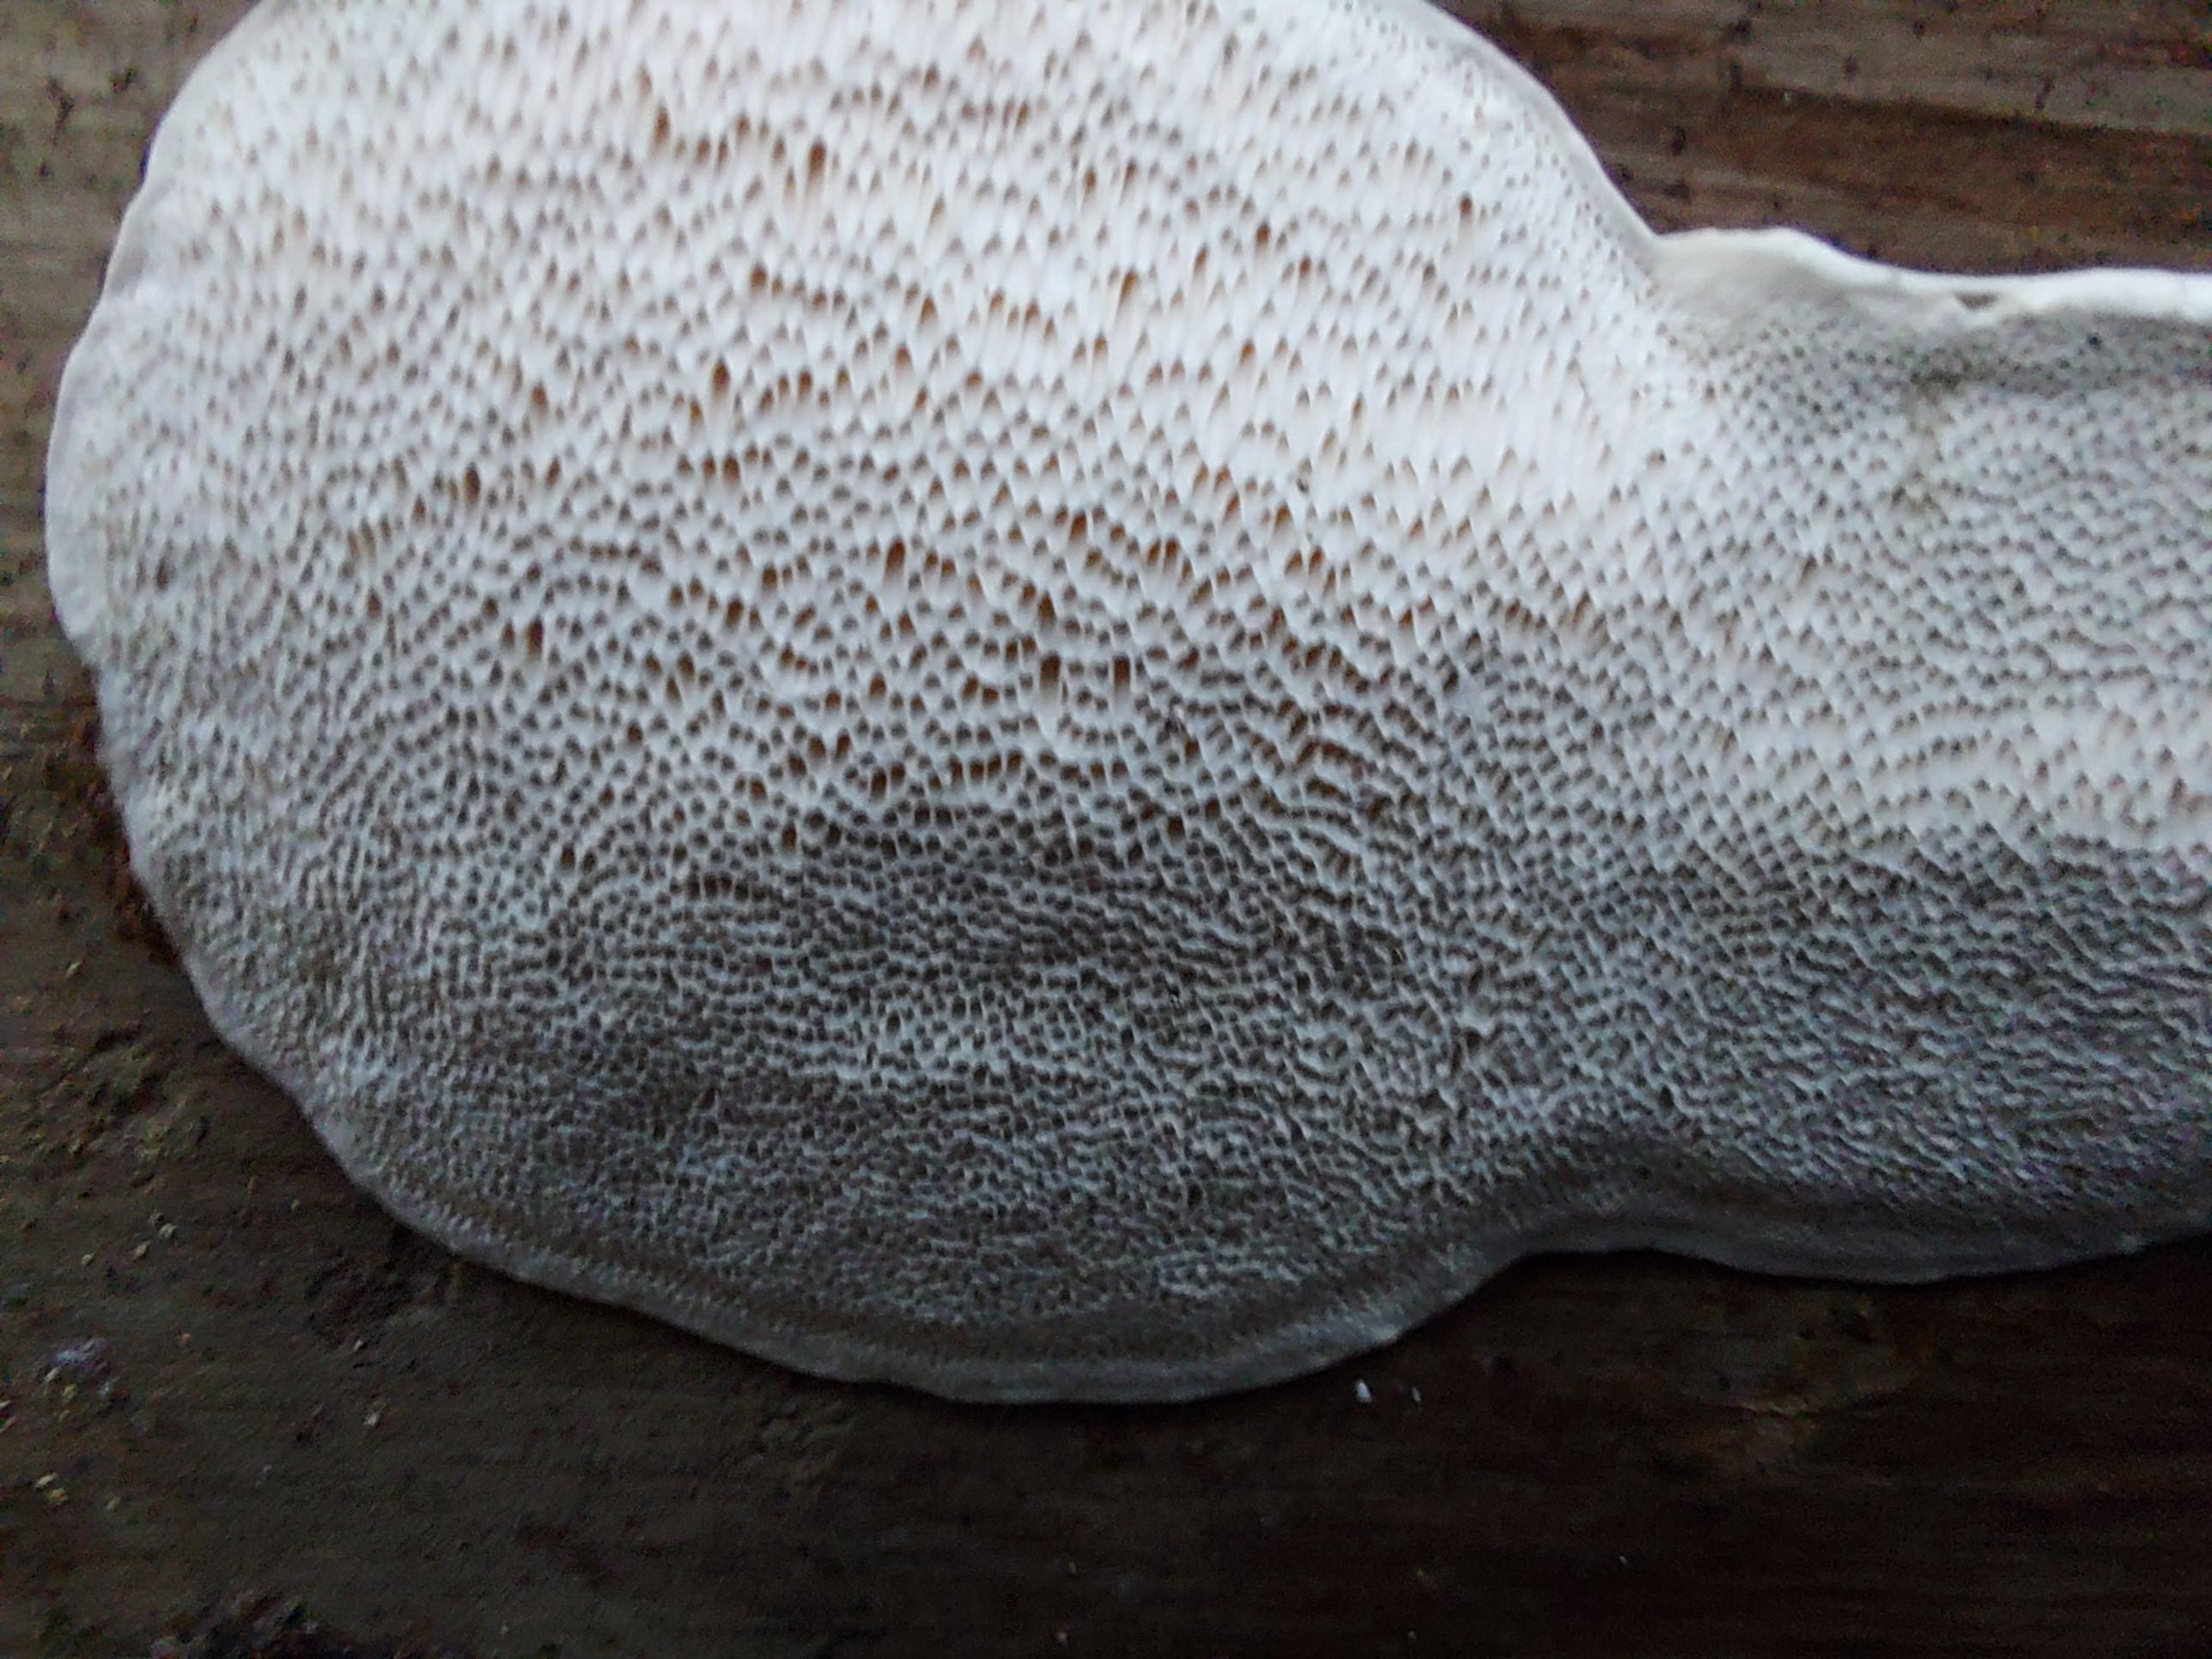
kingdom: Fungi
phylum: Basidiomycota
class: Agaricomycetes
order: Russulales
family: Bondarzewiaceae
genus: Heterobasidion
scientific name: Heterobasidion
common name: rodfordærver
